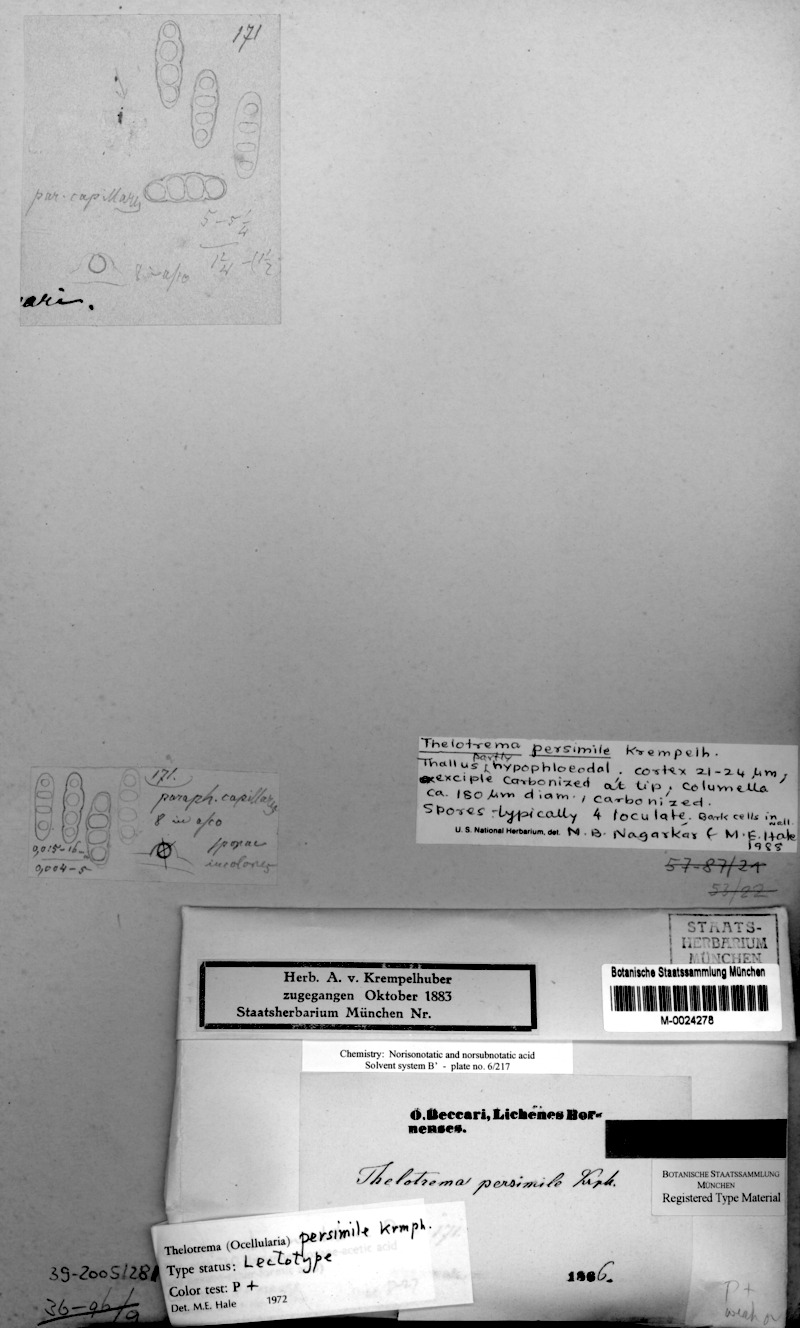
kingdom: Fungi
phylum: Ascomycota
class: Lecanoromycetes
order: Ostropales
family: Graphidaceae
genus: Ocellularia
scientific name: Ocellularia persimilis
